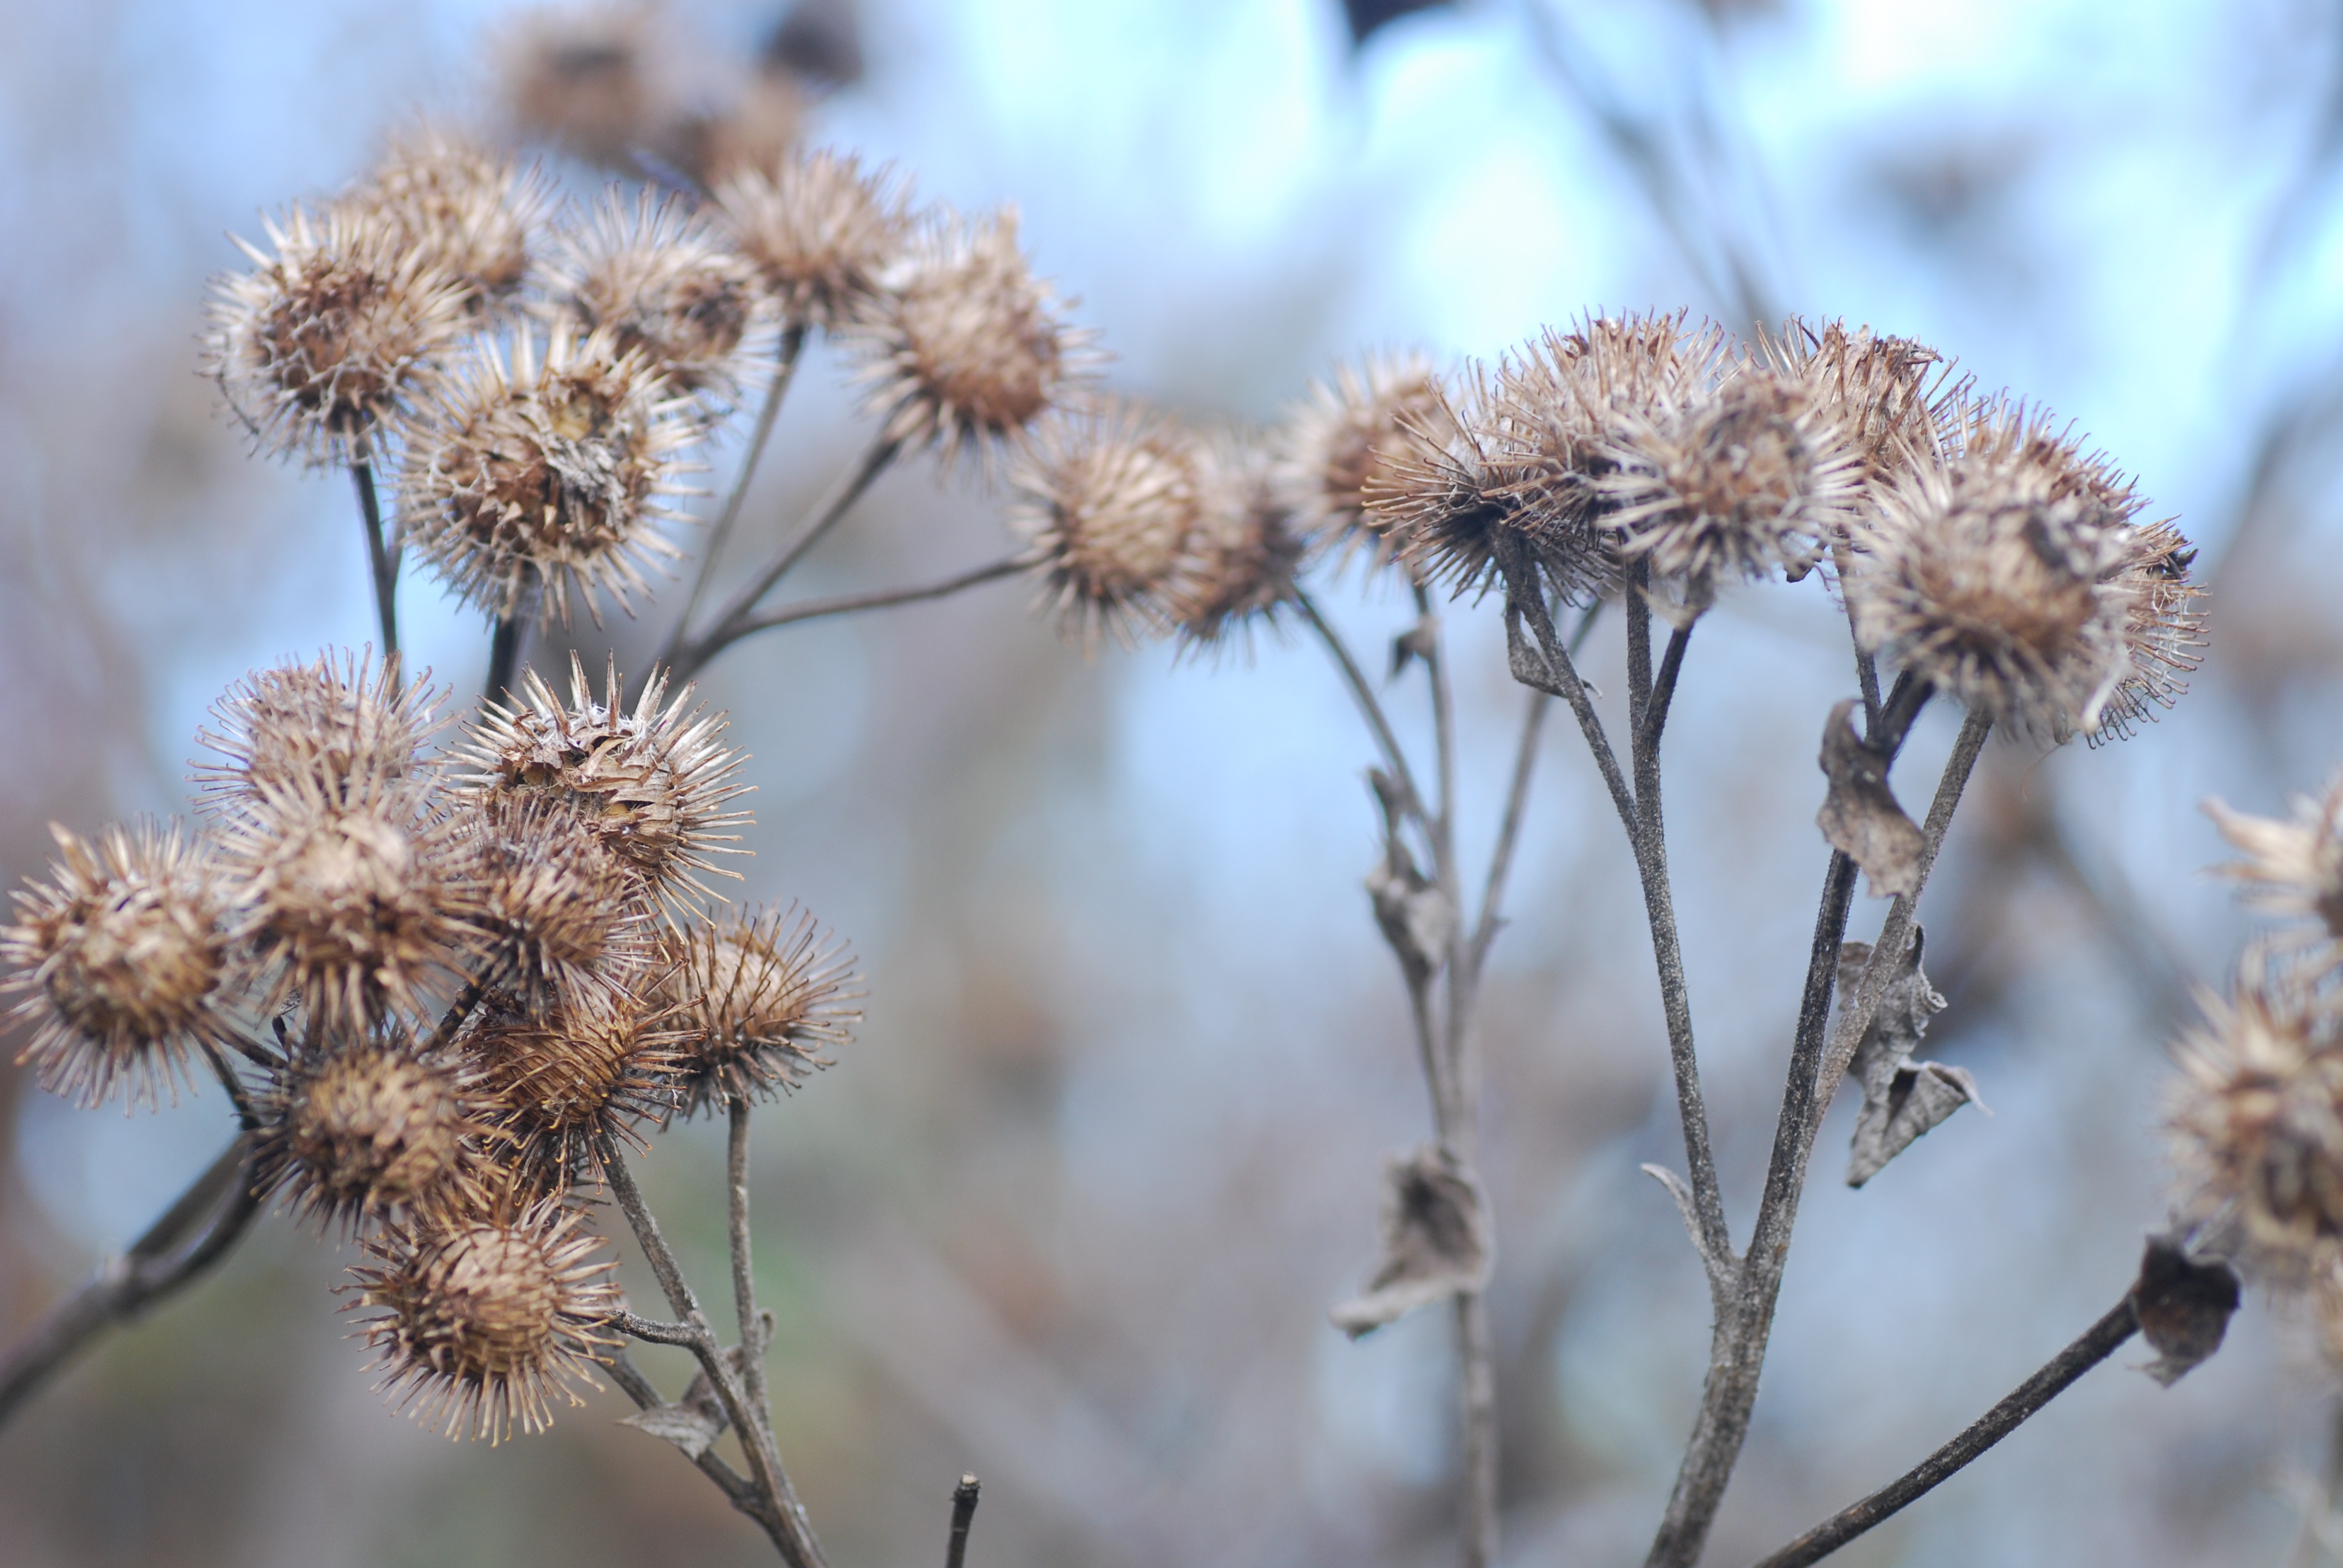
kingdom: Plantae
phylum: Tracheophyta
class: Magnoliopsida
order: Asterales
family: Asteraceae
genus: Arctium
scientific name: Arctium minus
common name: Lesser burdock
